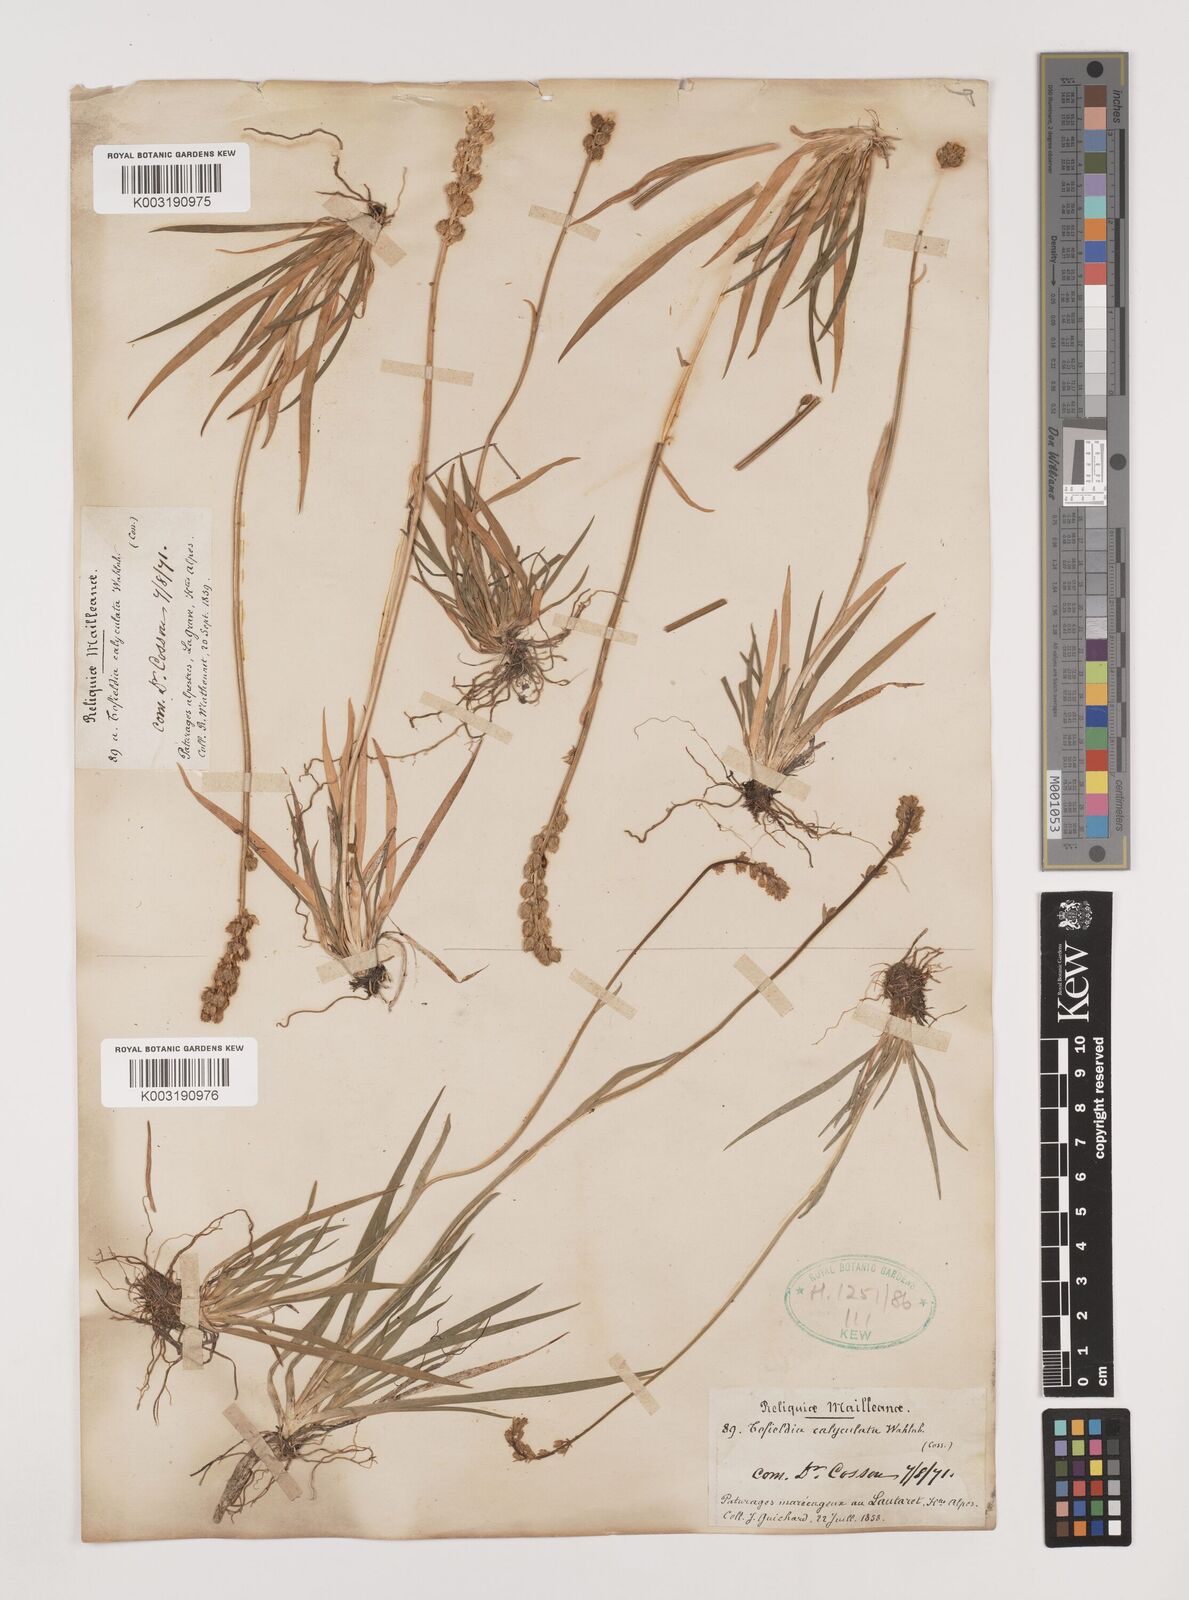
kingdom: Plantae
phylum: Tracheophyta
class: Liliopsida
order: Alismatales
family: Tofieldiaceae
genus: Tofieldia
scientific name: Tofieldia calyculata
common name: German-asphodel
